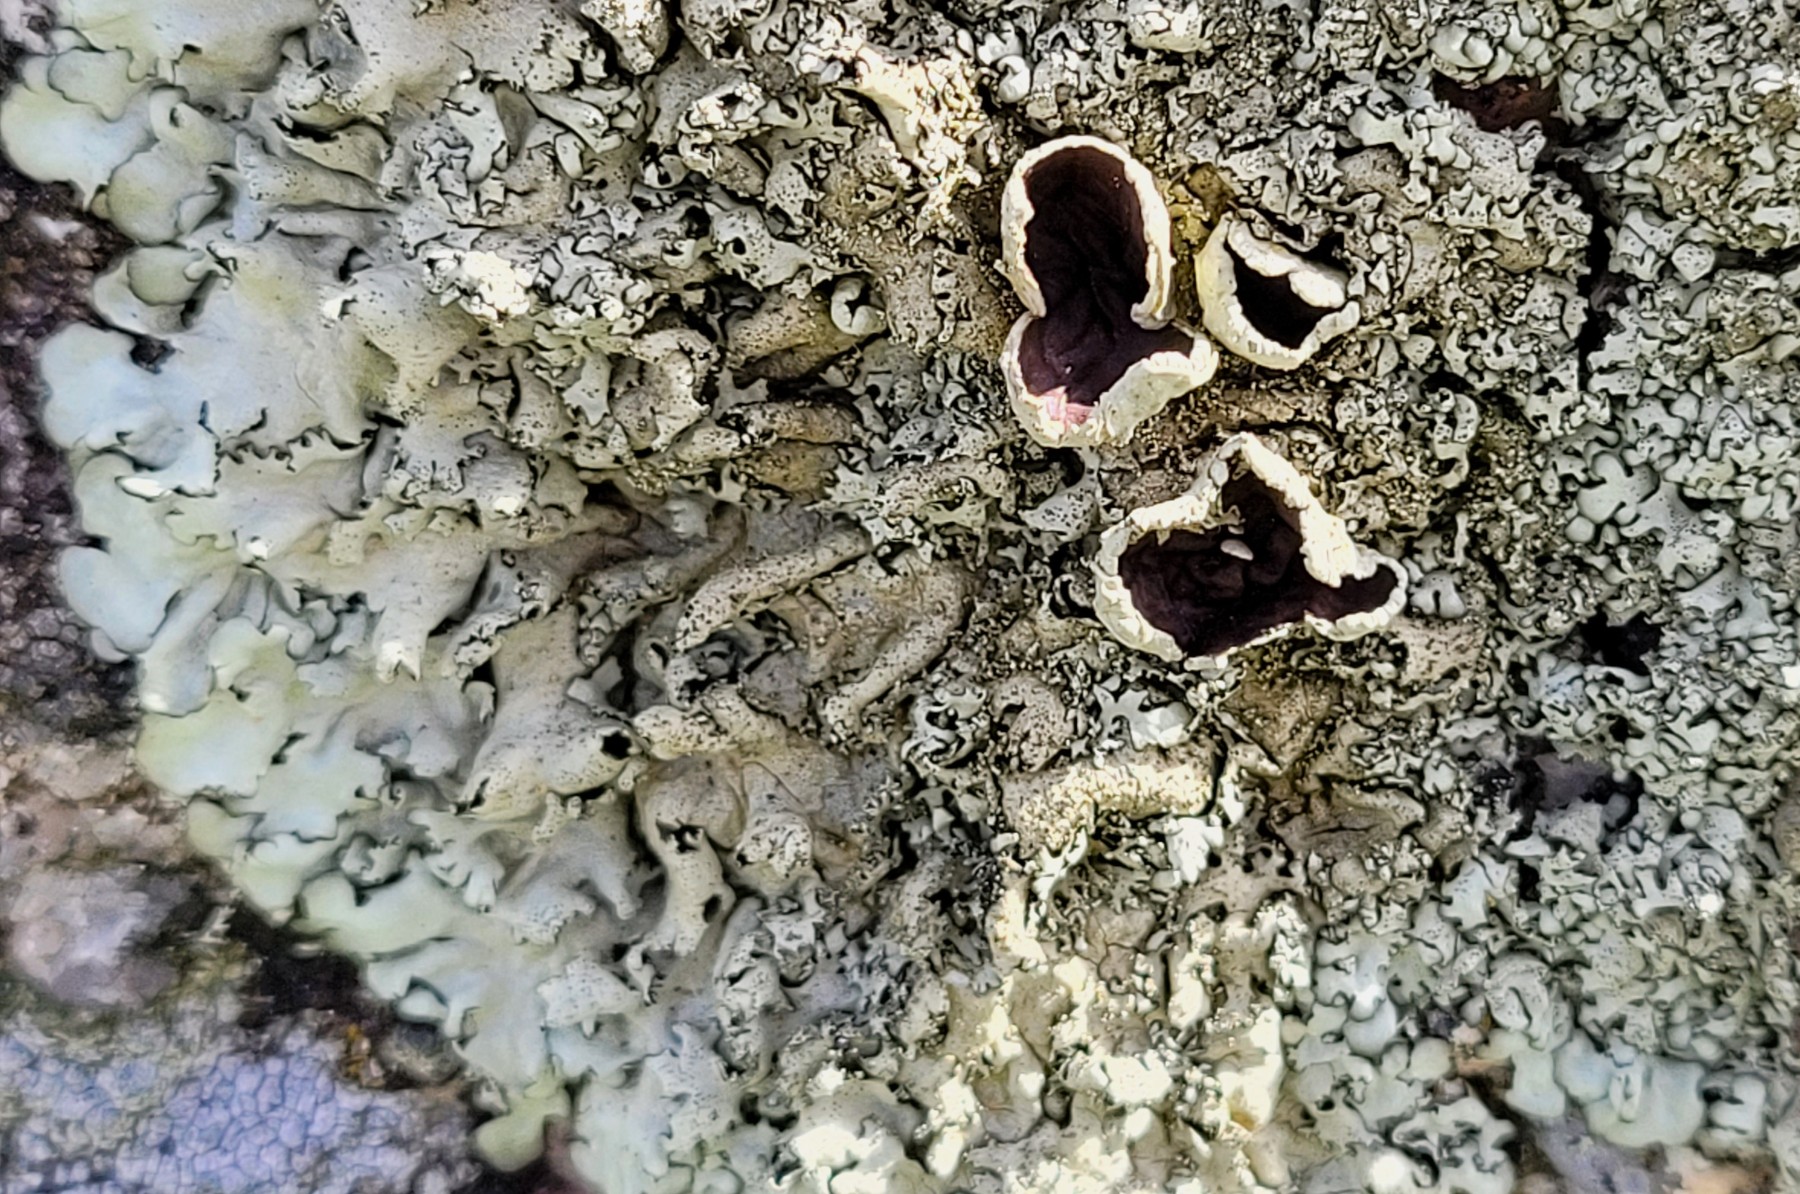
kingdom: Fungi
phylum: Ascomycota
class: Lecanoromycetes
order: Lecanorales
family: Parmeliaceae
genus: Xanthoparmelia
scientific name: Xanthoparmelia conspersa
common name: messing-skållav
